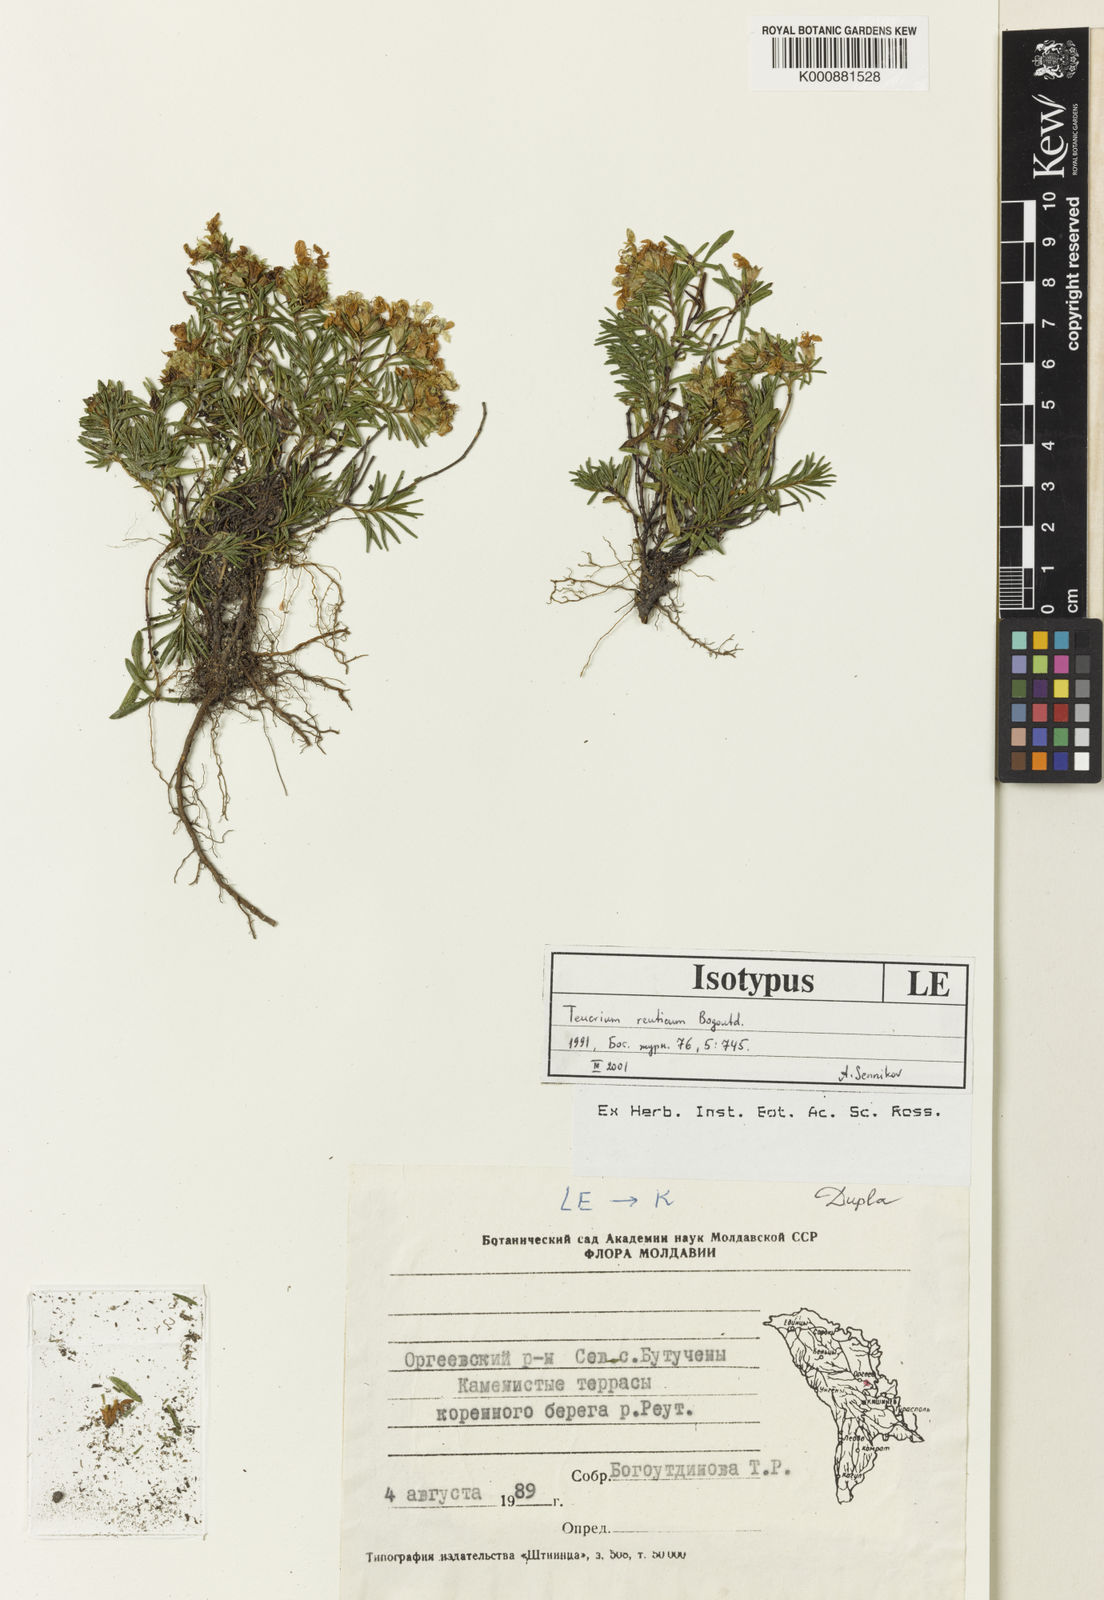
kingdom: Plantae
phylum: Tracheophyta
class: Magnoliopsida
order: Lamiales
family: Lamiaceae
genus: Teucrium
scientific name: Teucrium montanum
